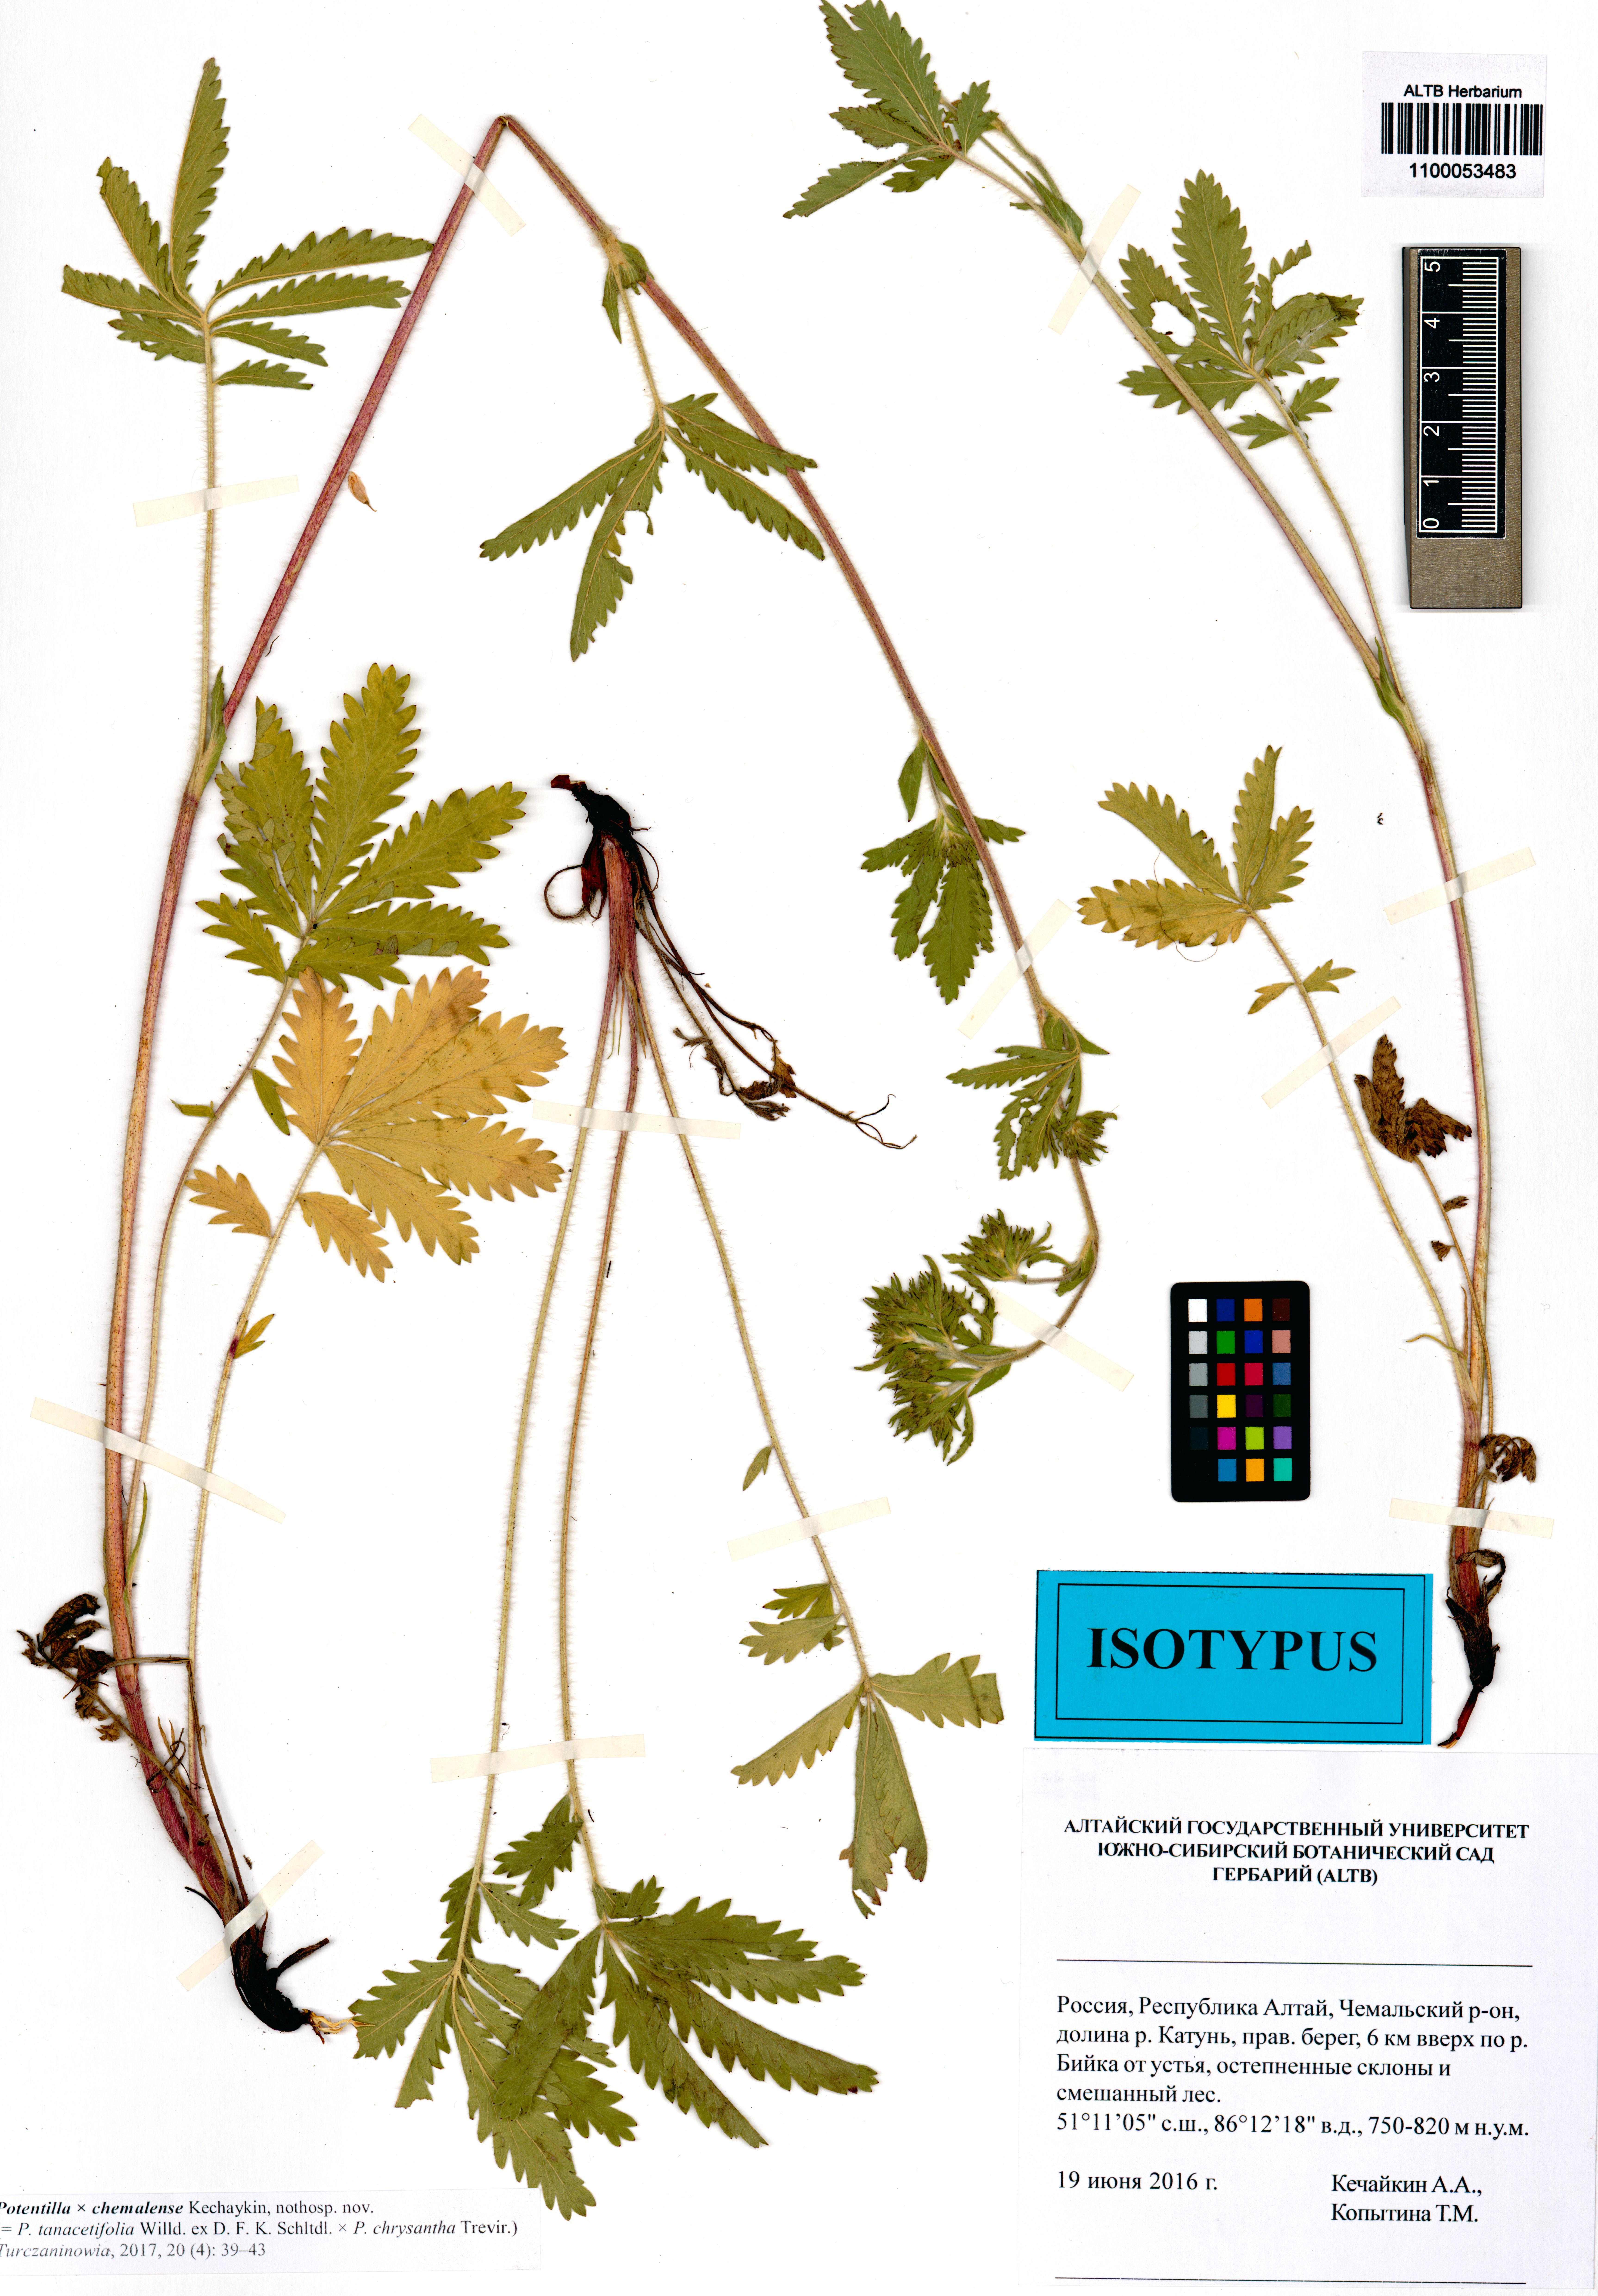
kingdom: Plantae
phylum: Tracheophyta
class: Magnoliopsida
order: Rosales
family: Rosaceae
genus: Potentilla
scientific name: Potentilla chemalensis
